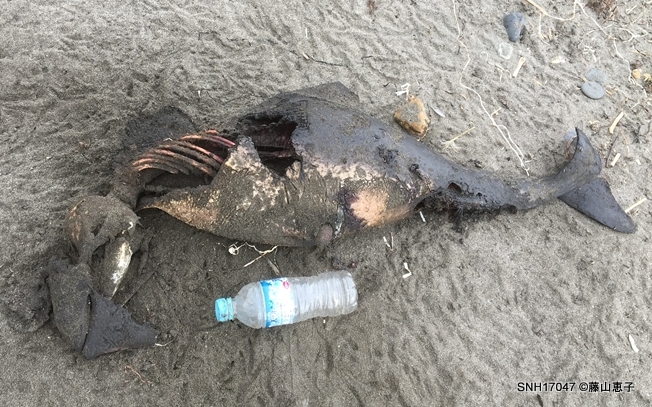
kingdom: Animalia
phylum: Chordata
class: Mammalia
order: Cetacea
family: Phocoenidae
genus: Phocoena
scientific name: Phocoena phocoena
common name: Harbour porpoise
